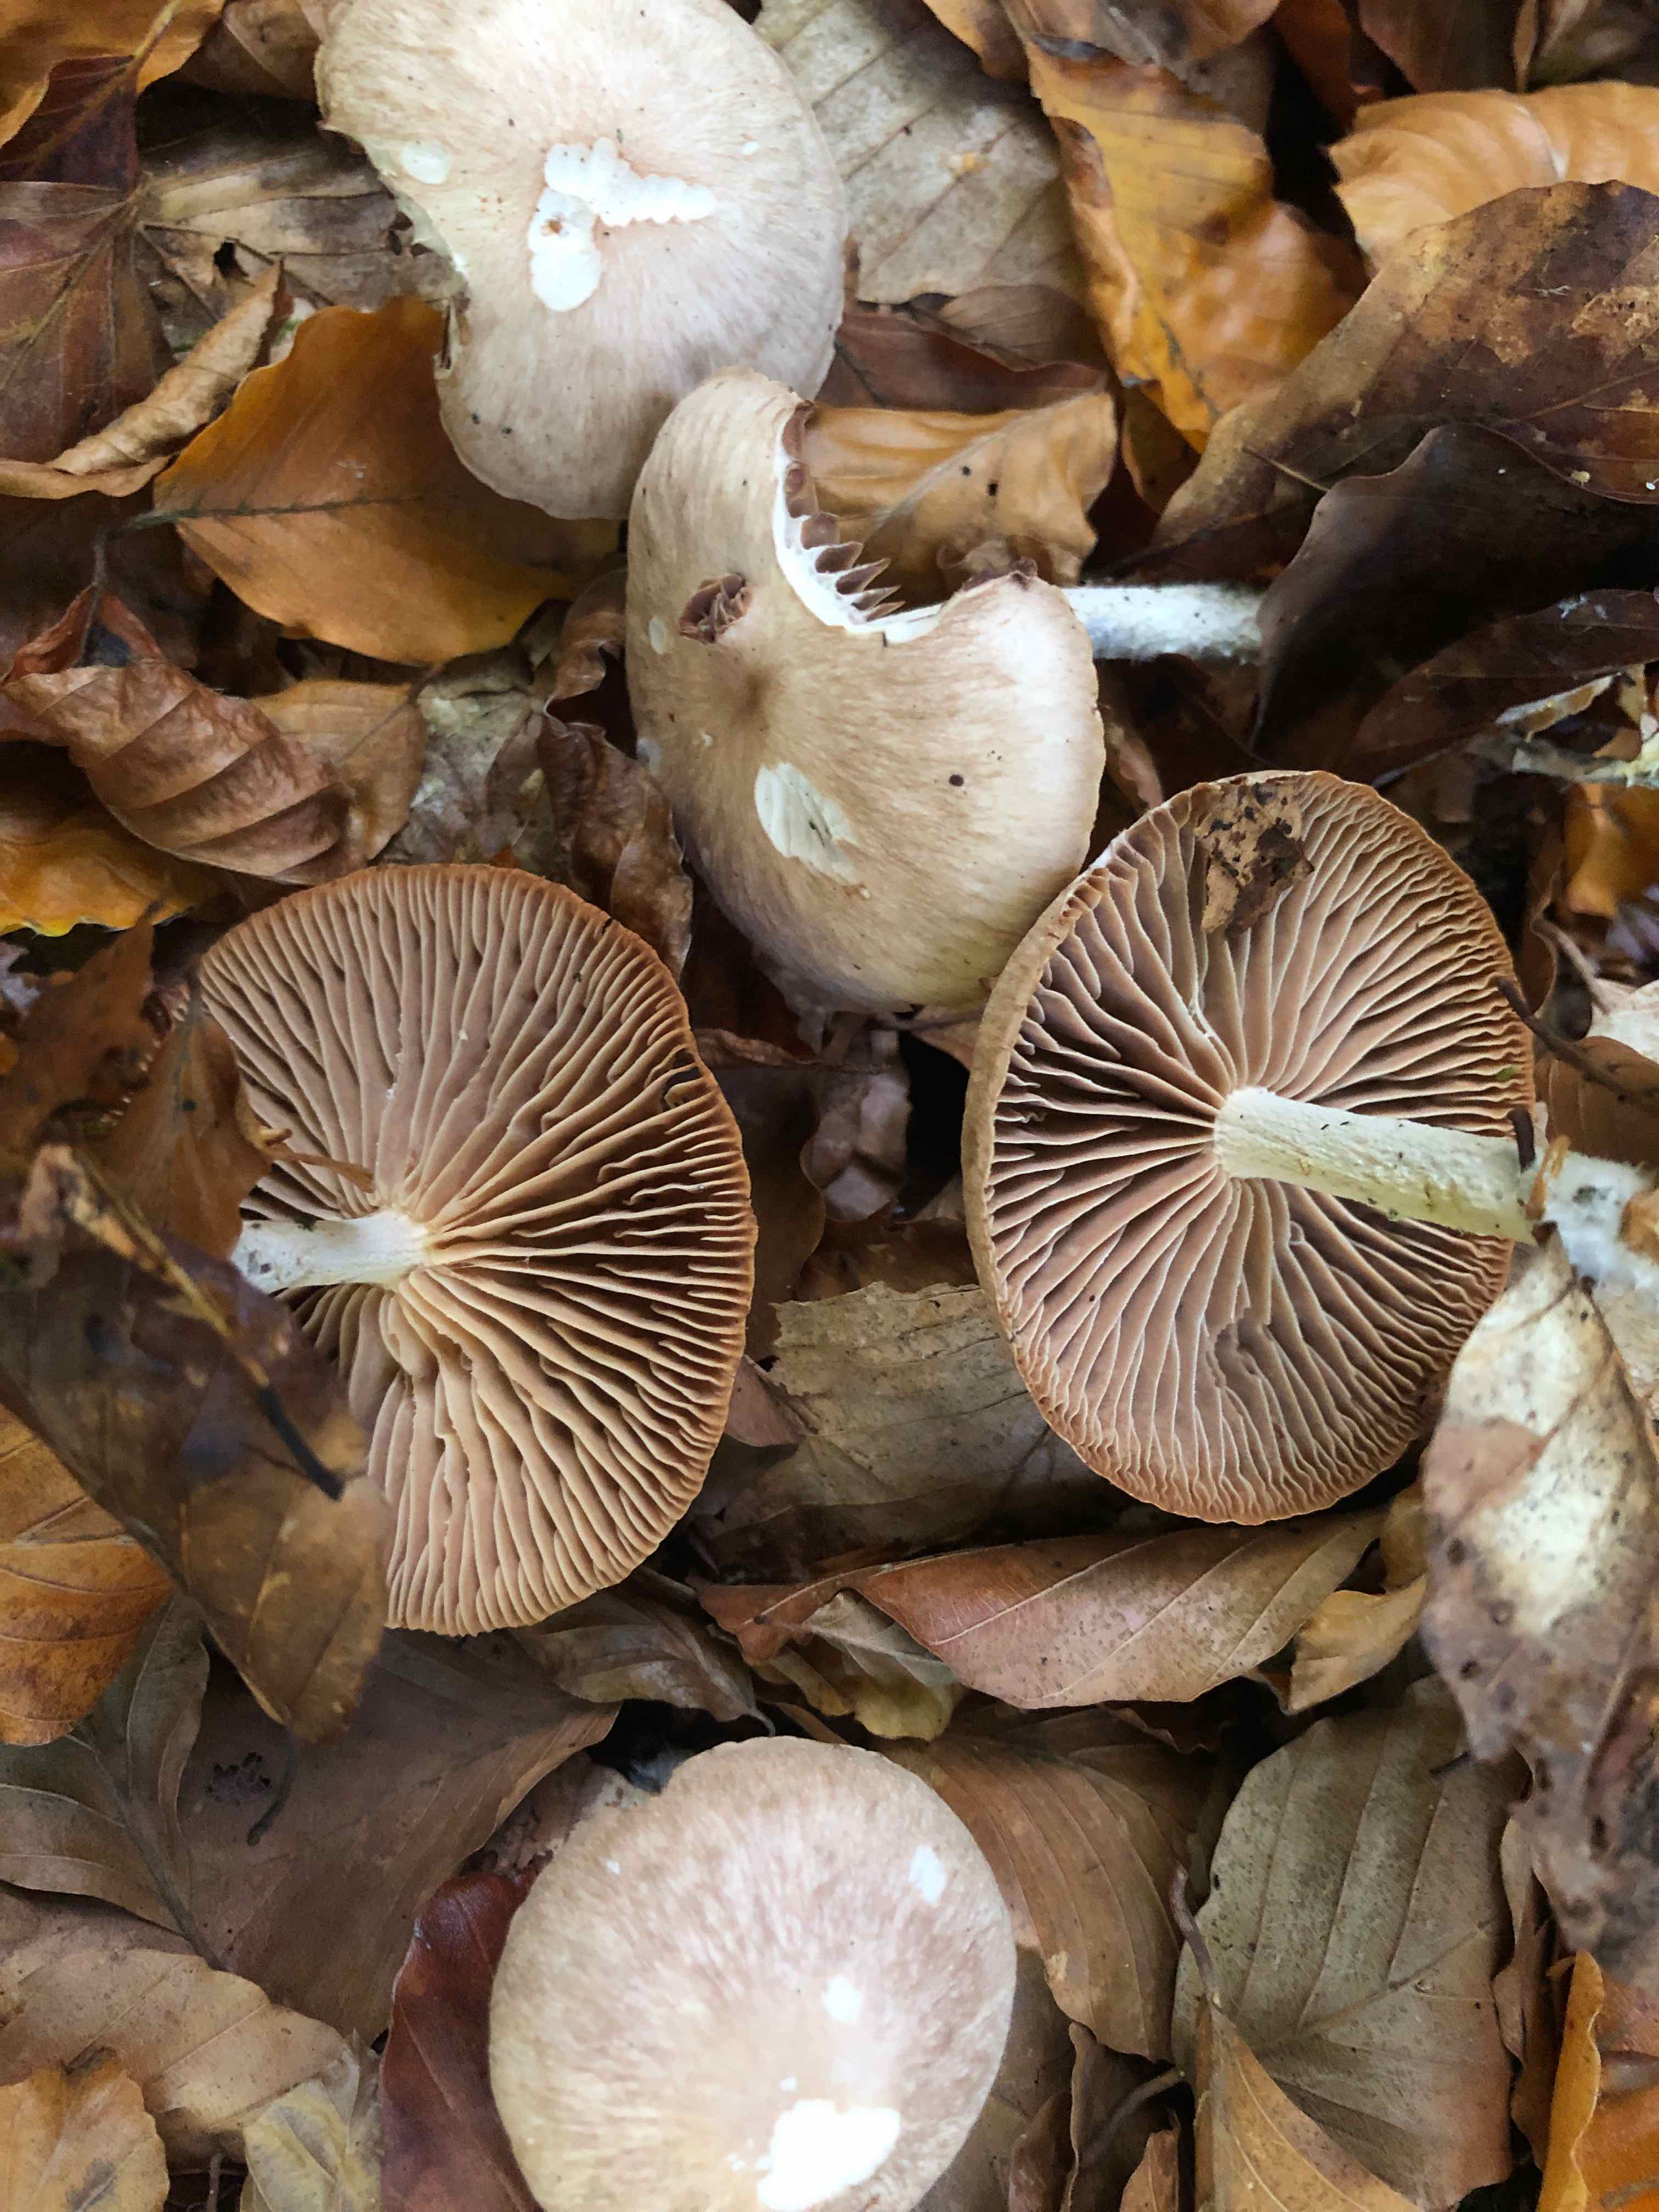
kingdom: Fungi
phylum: Basidiomycota
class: Agaricomycetes
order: Agaricales
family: Omphalotaceae
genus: Collybiopsis
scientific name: Collybiopsis peronata
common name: bestøvlet fladhat
